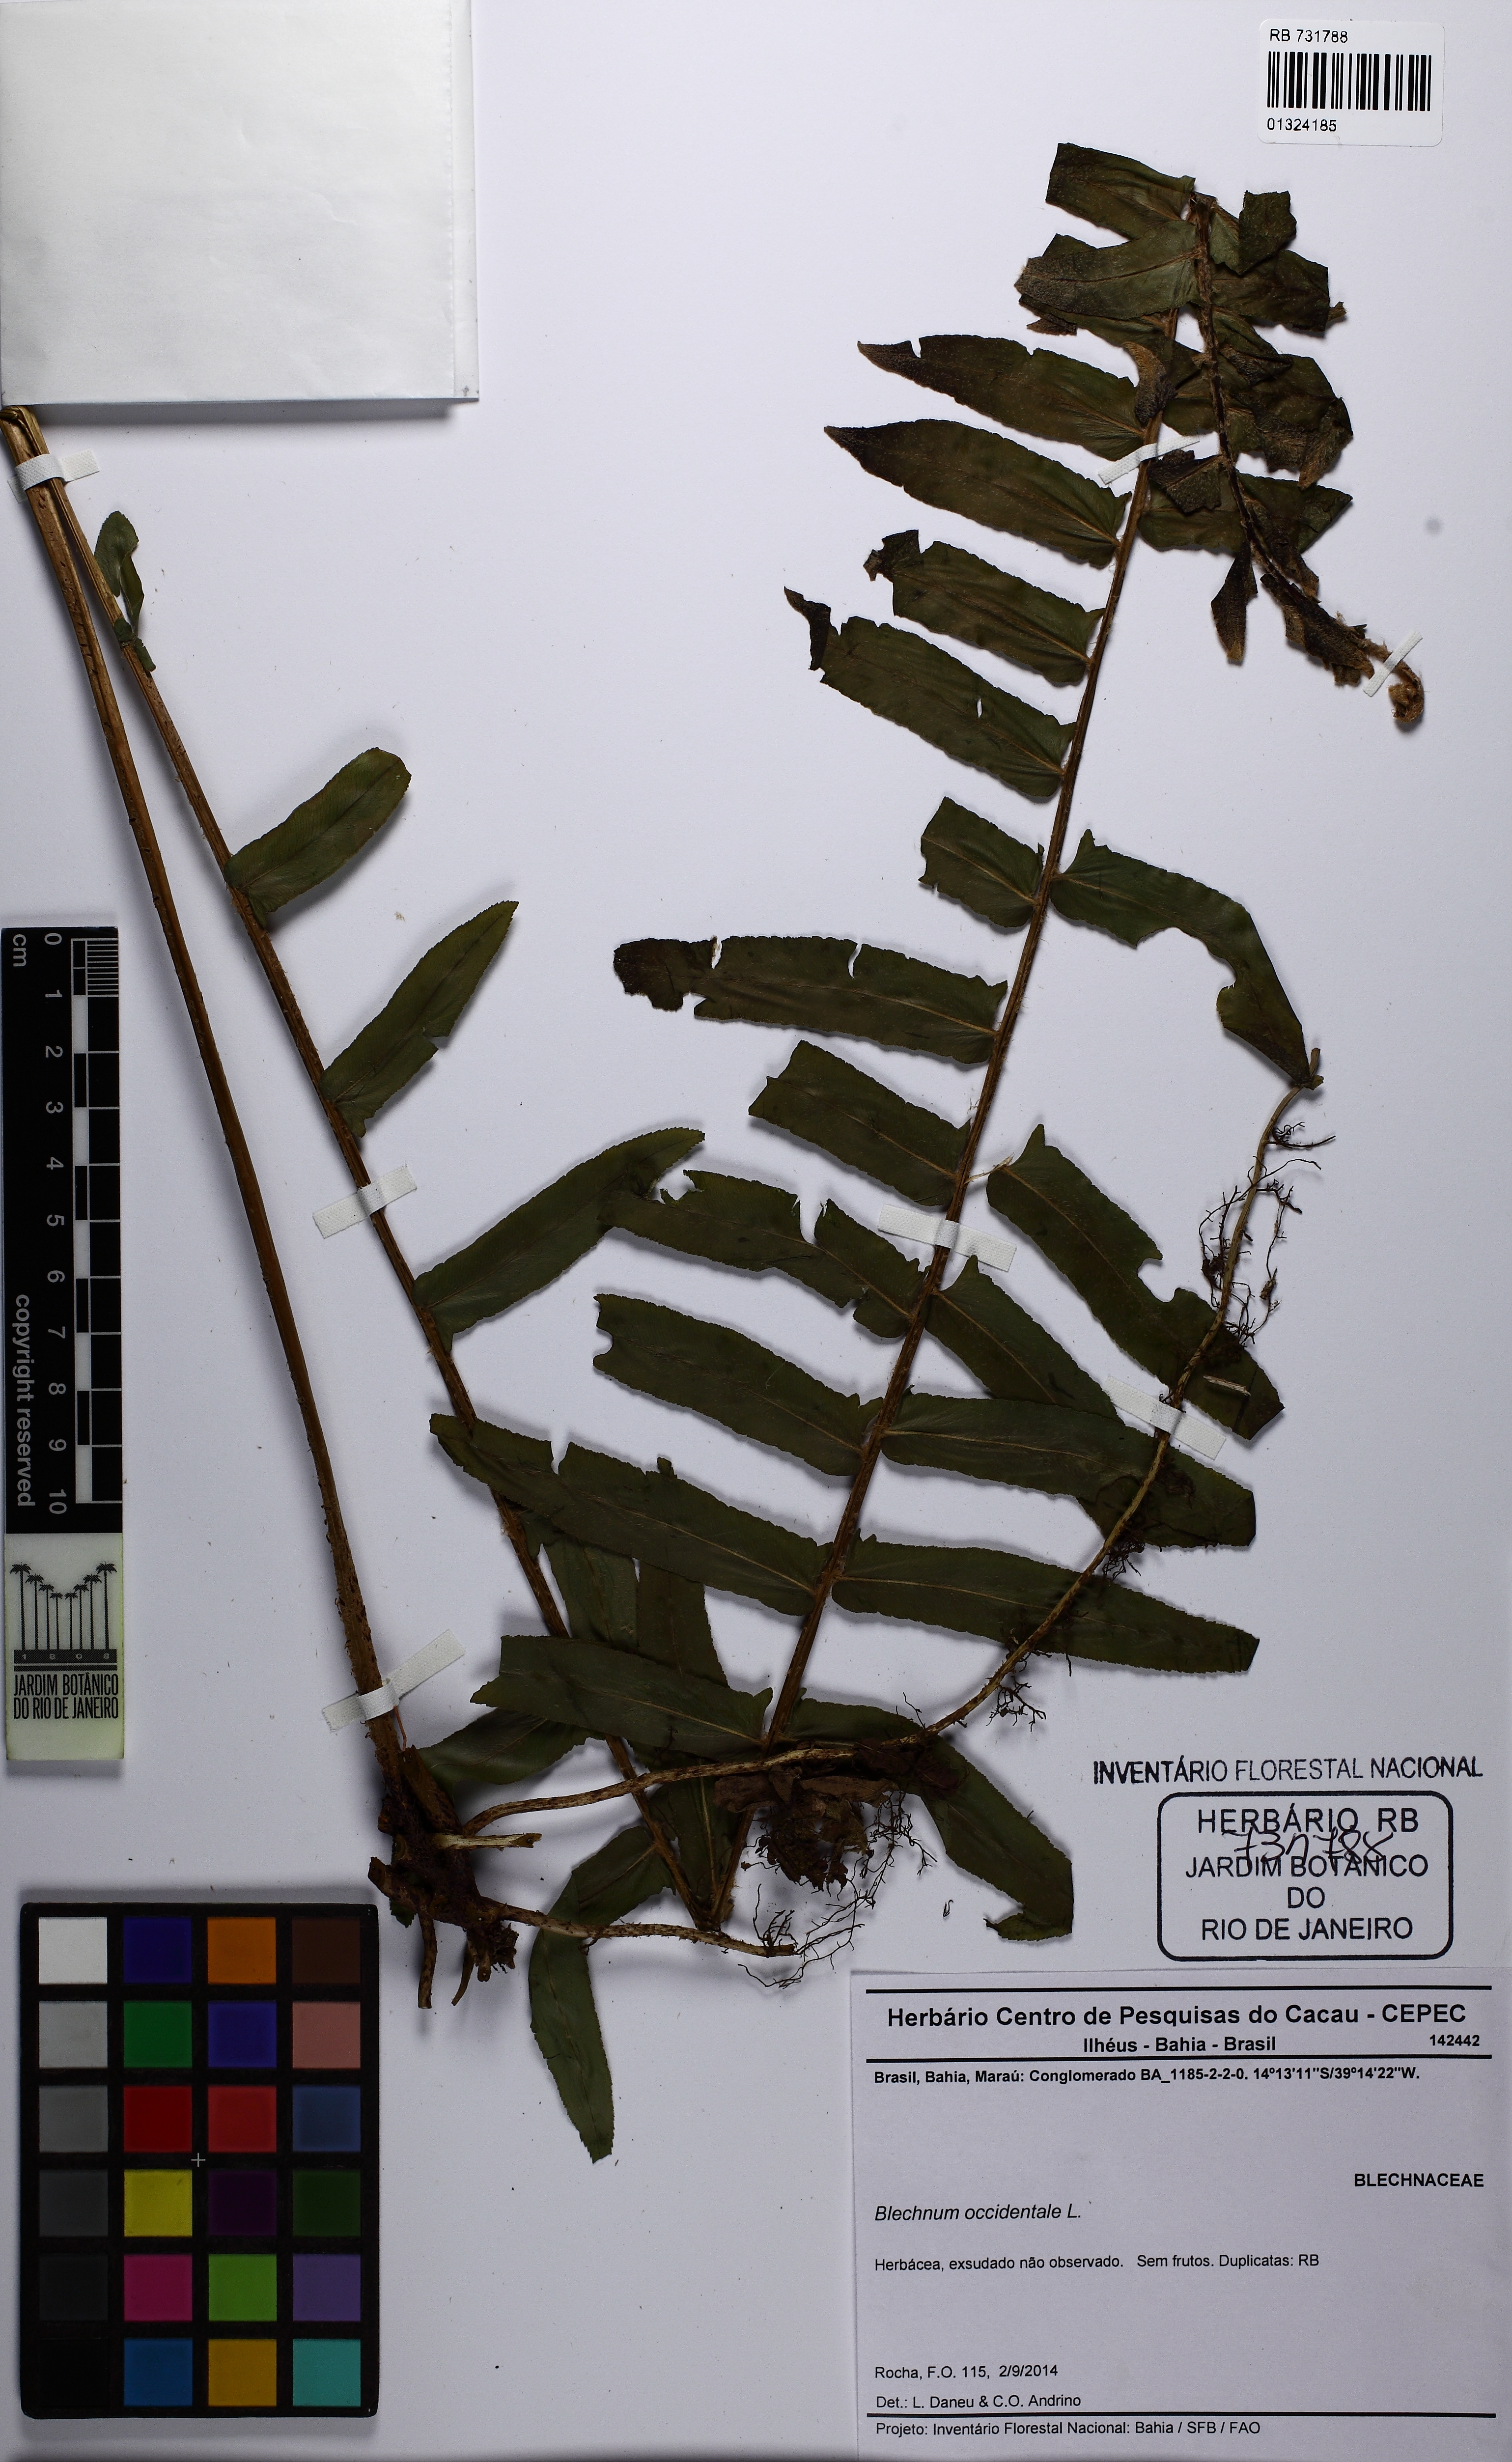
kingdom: Plantae
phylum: Tracheophyta
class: Polypodiopsida
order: Polypodiales
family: Blechnaceae
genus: Blechnum
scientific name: Blechnum occidentale
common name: Hammock fern
